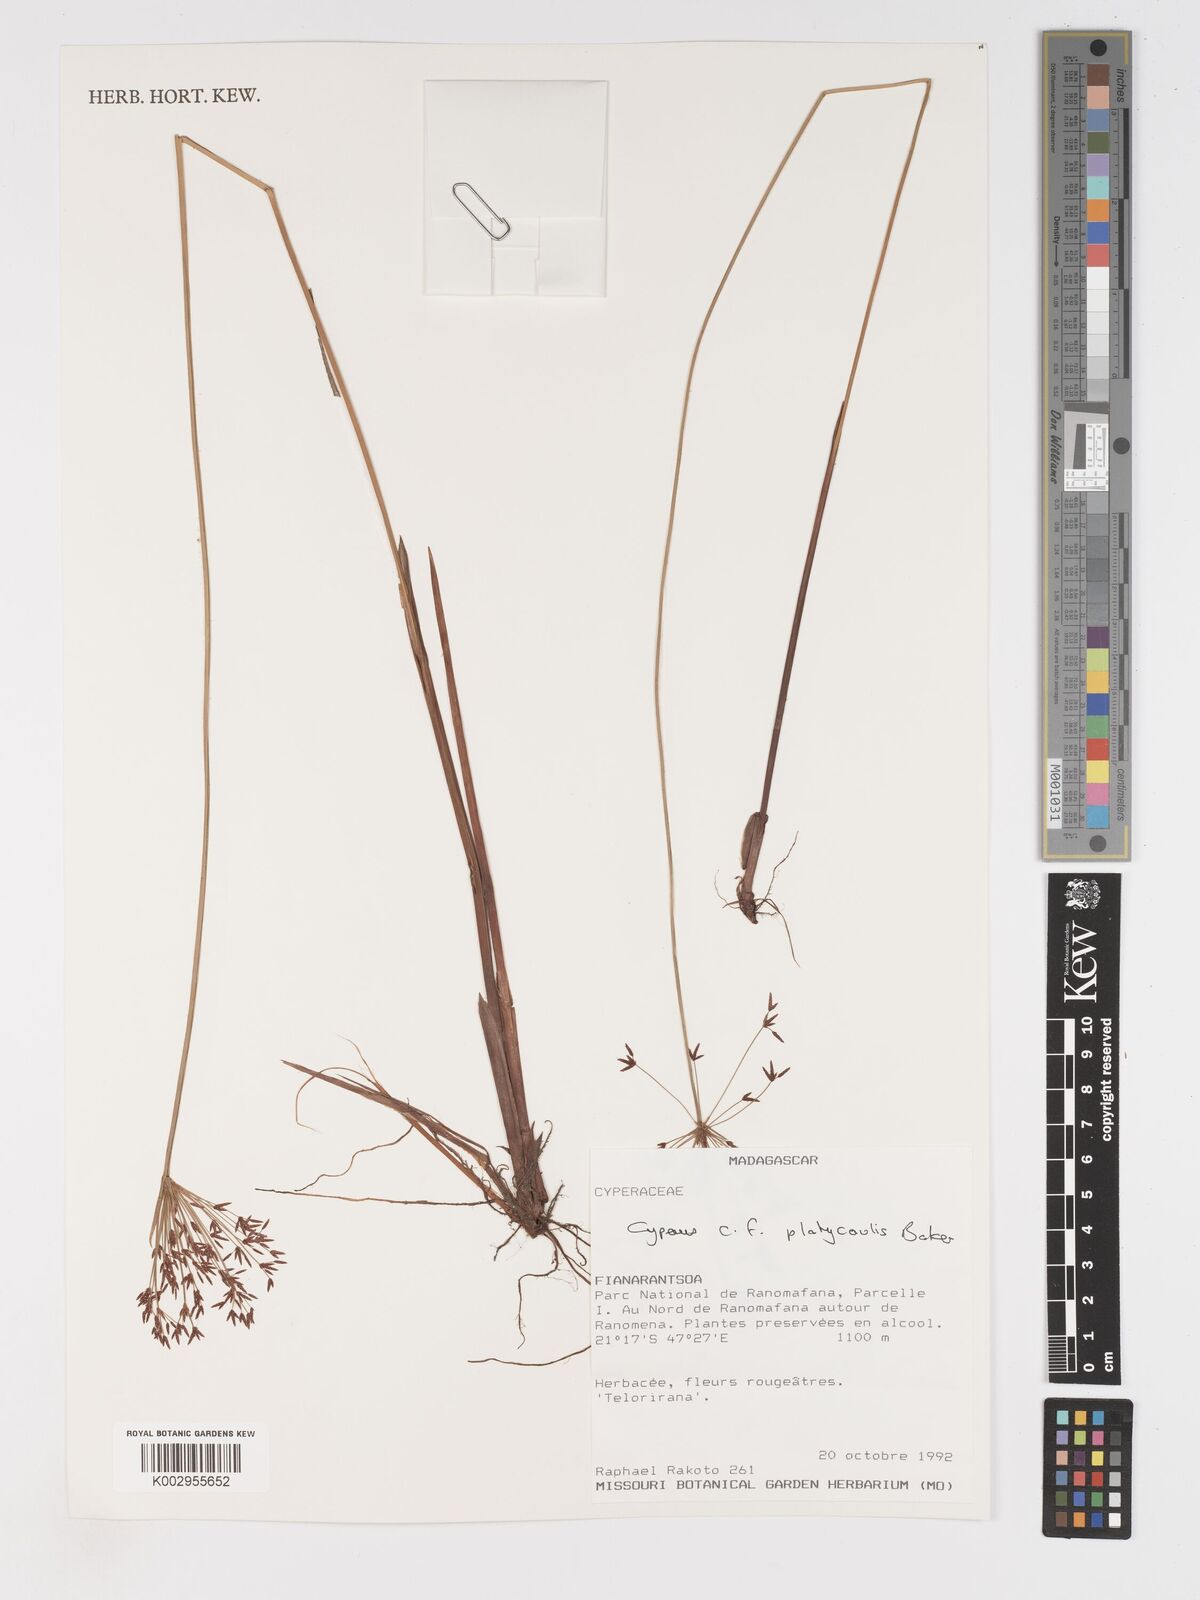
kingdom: Plantae
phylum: Tracheophyta
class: Liliopsida
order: Poales
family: Cyperaceae
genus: Cyperus
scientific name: Cyperus platycaulis
